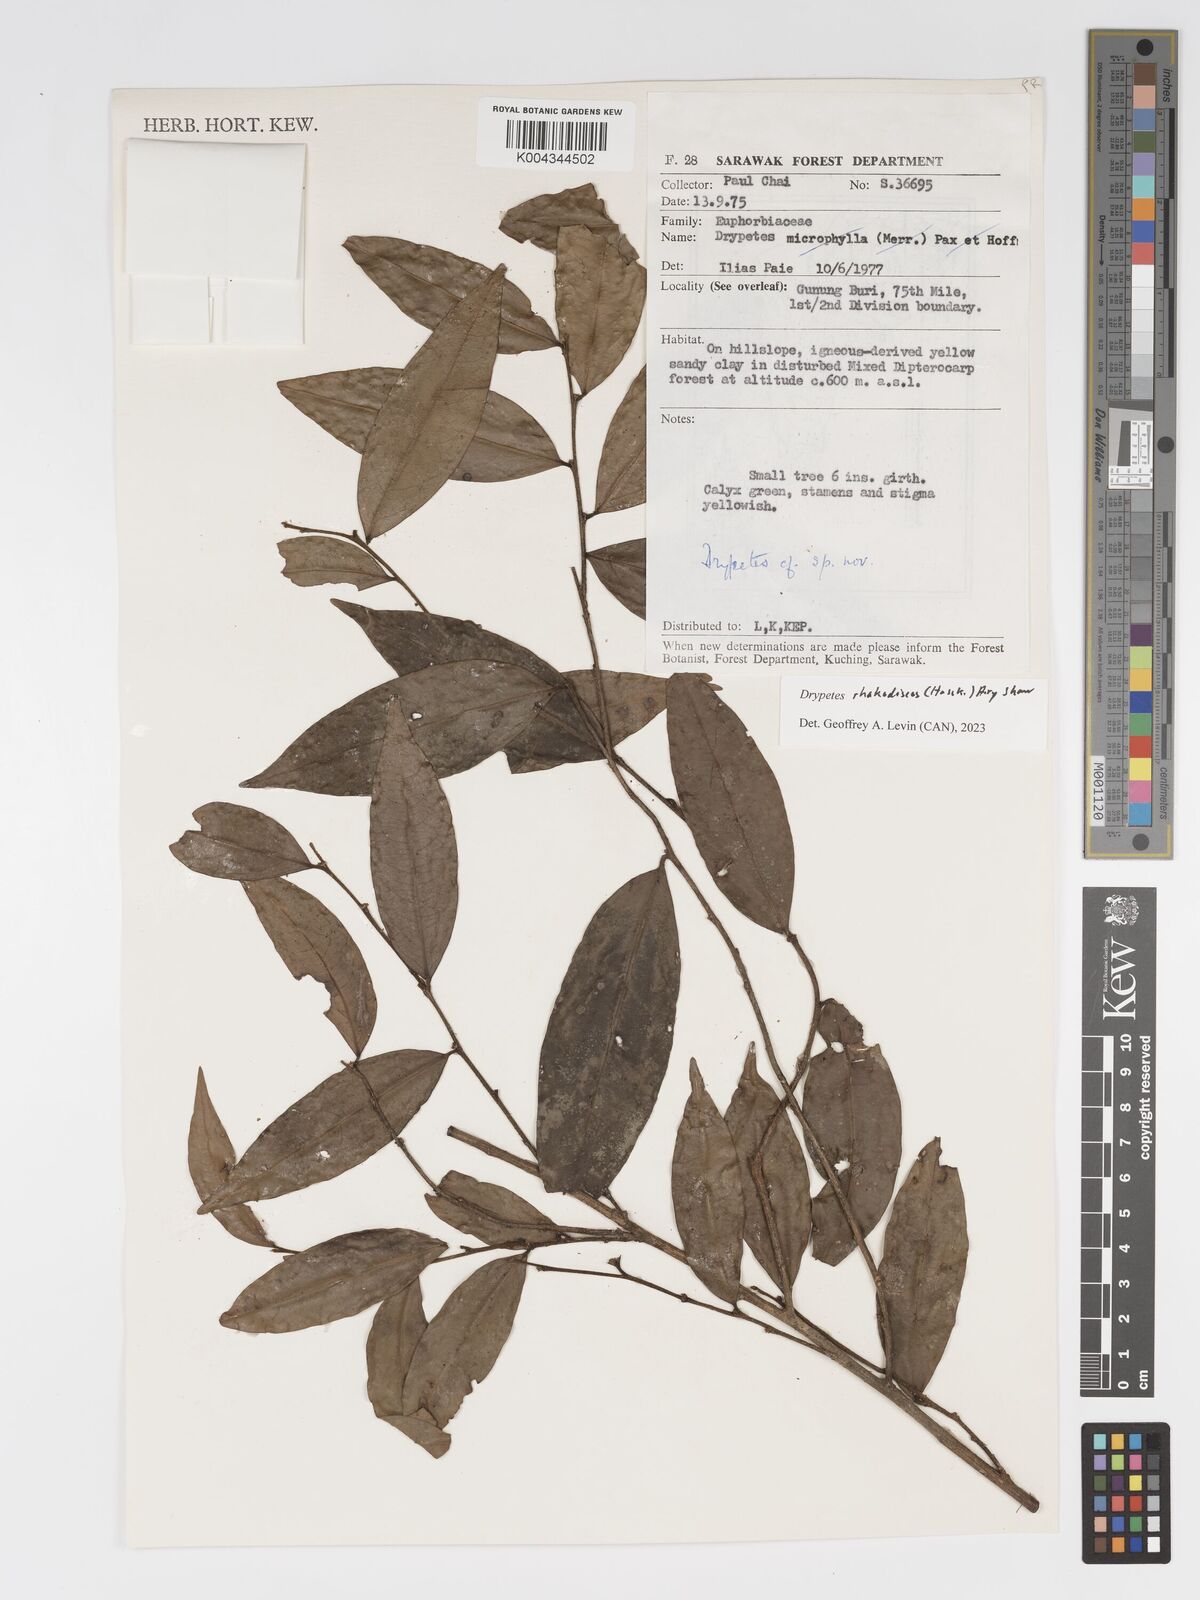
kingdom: Plantae
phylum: Tracheophyta
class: Magnoliopsida
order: Malpighiales
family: Putranjivaceae
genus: Drypetes
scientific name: Drypetes rhakodiskos
